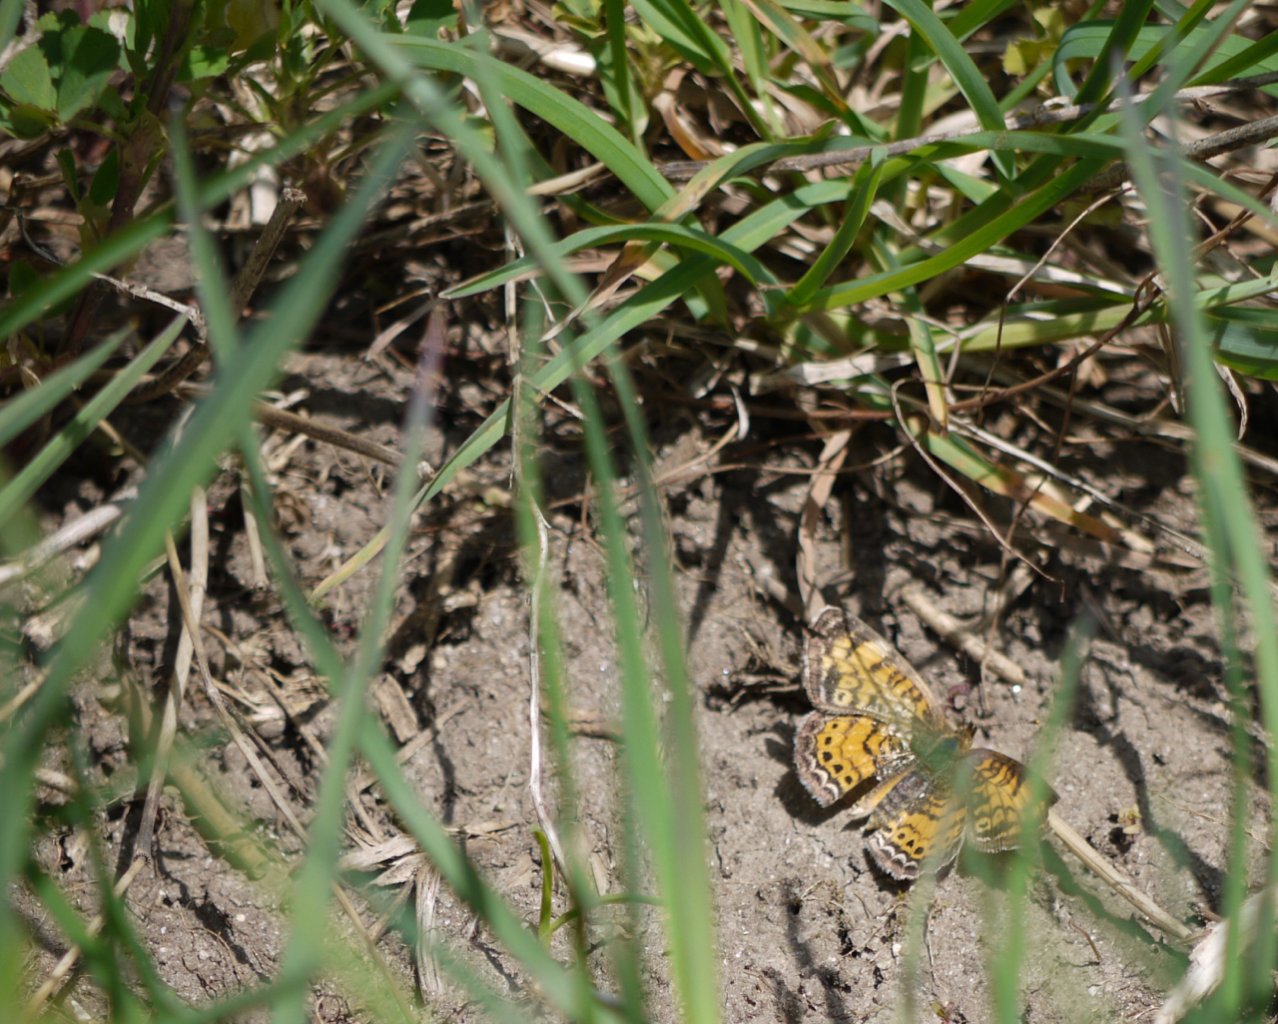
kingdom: Animalia
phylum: Arthropoda
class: Insecta
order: Lepidoptera
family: Nymphalidae
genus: Phyciodes
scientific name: Phyciodes tharos
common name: Pearl Crescent
